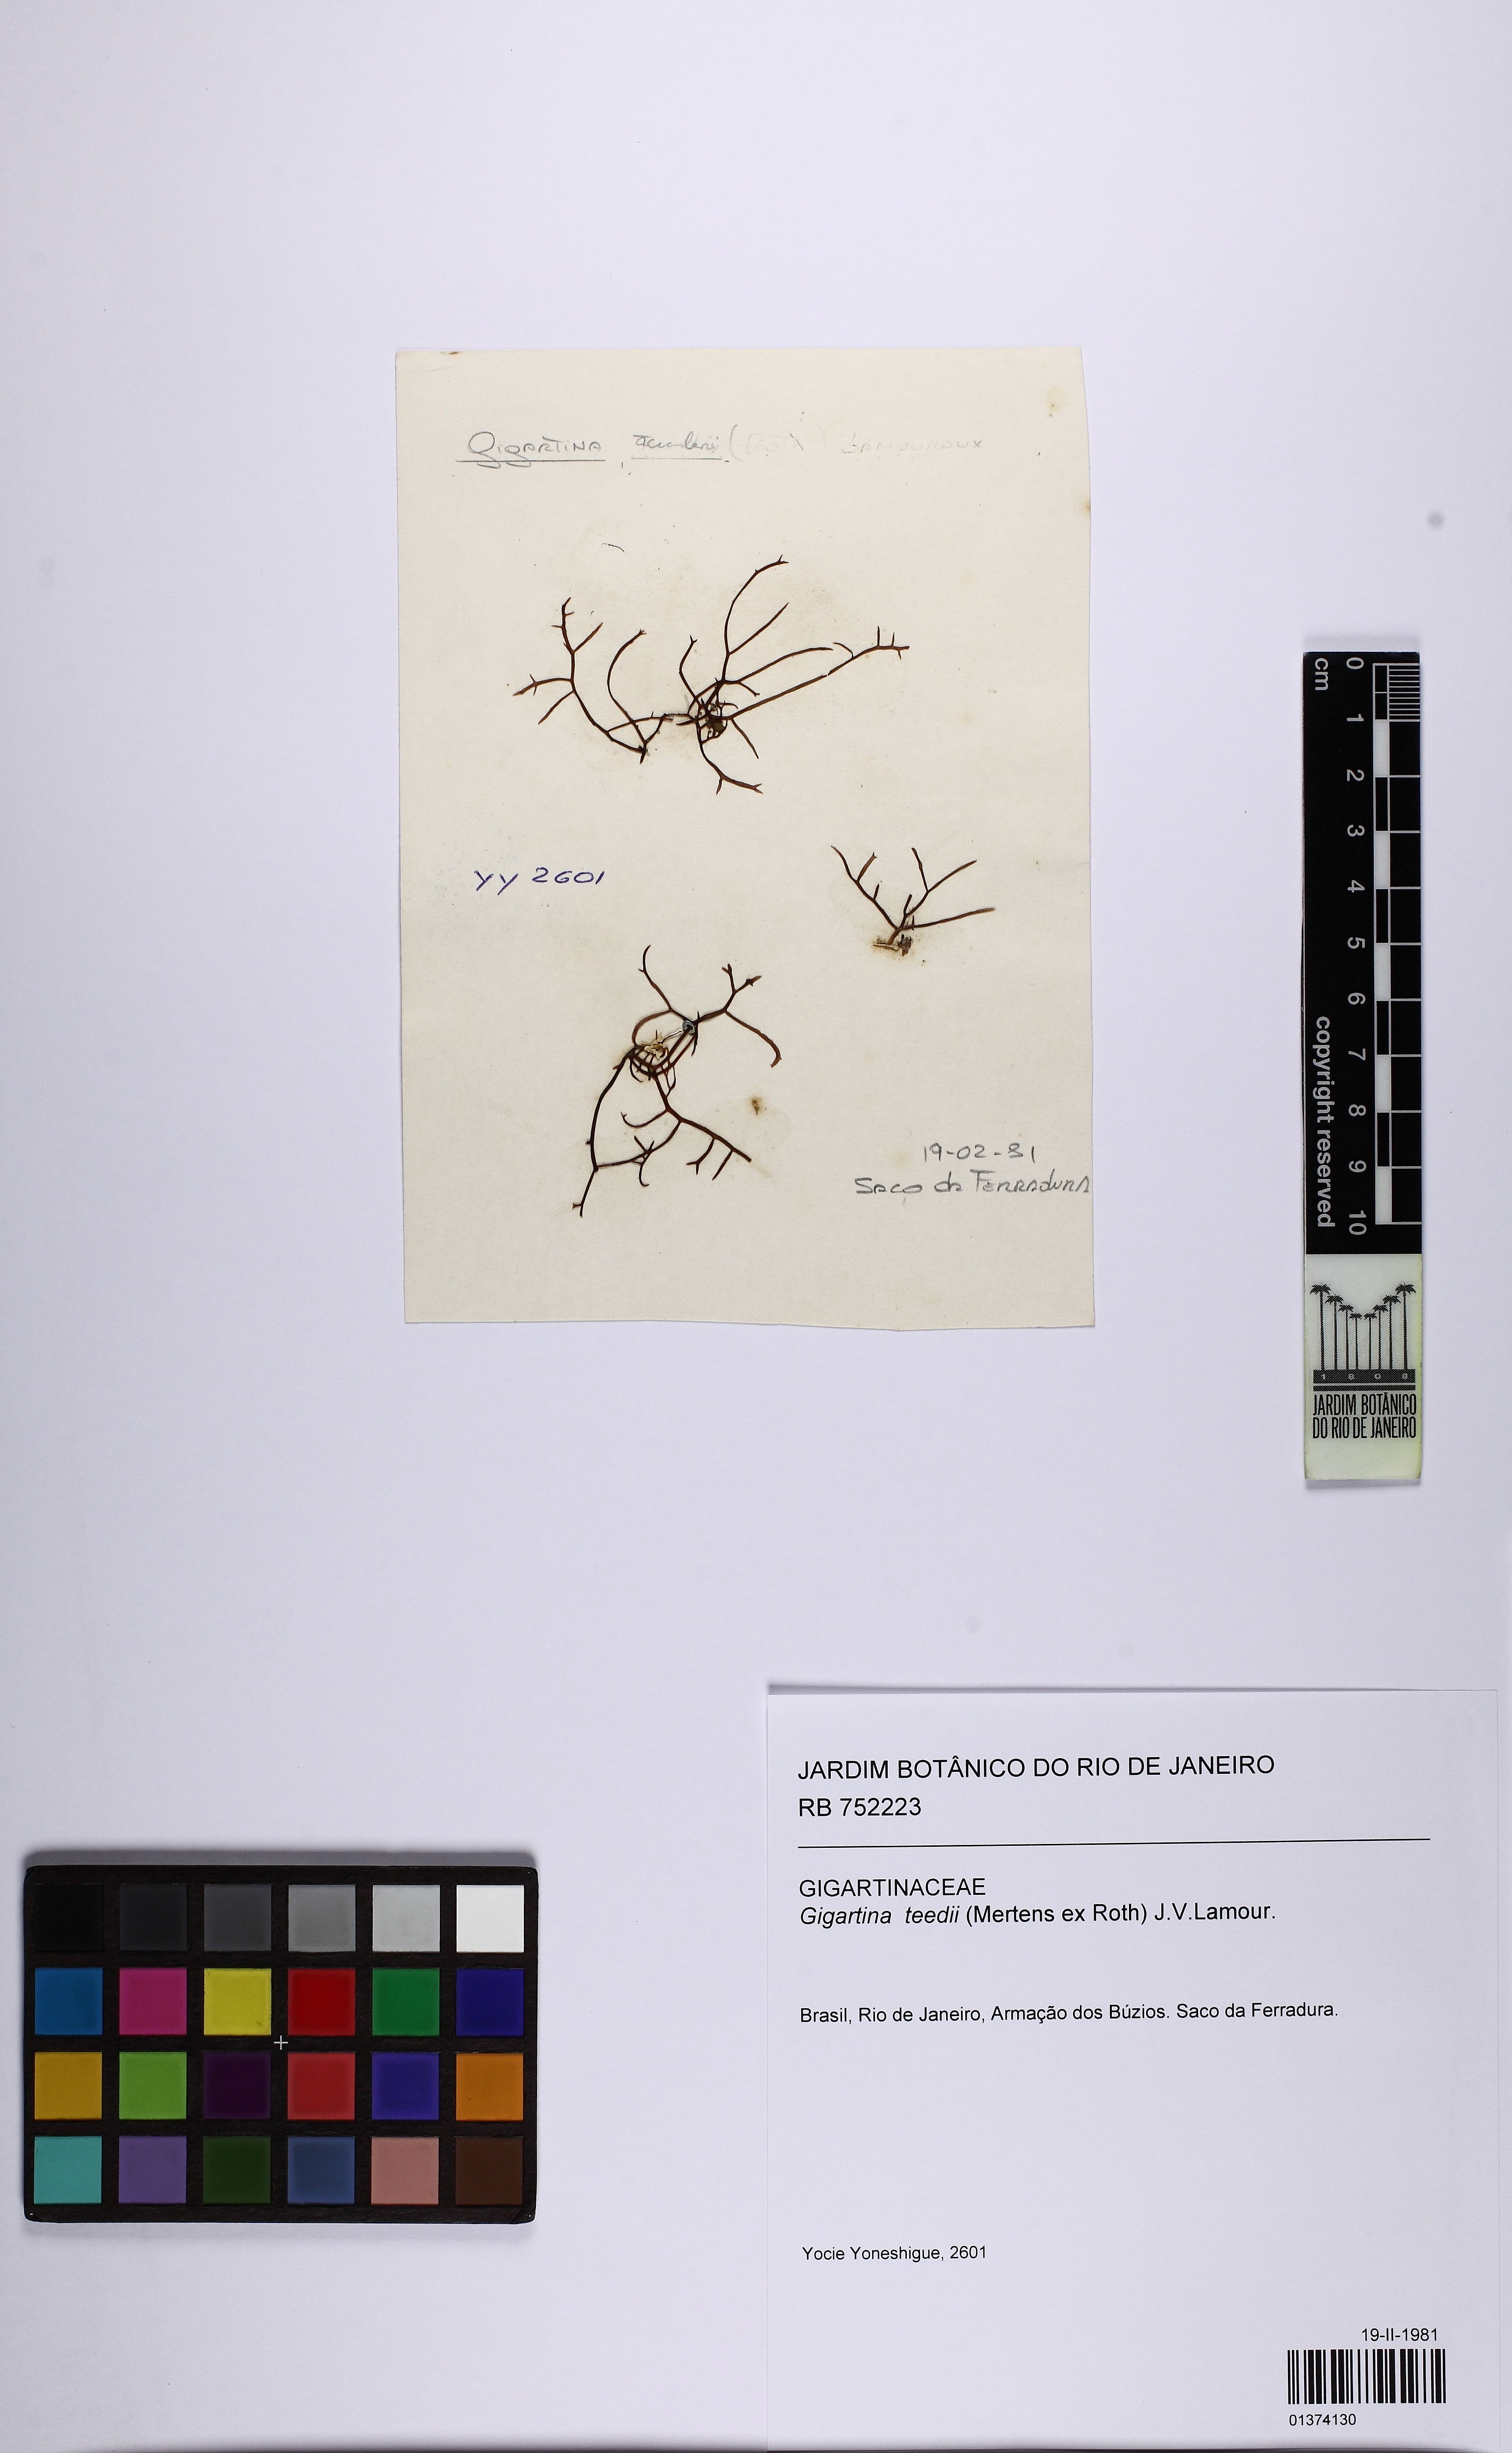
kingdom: Plantae
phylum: Rhodophyta
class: Florideophyceae
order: Gigartinales
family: Gigartinaceae
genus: Chondracanthus
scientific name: Chondracanthus teedei
